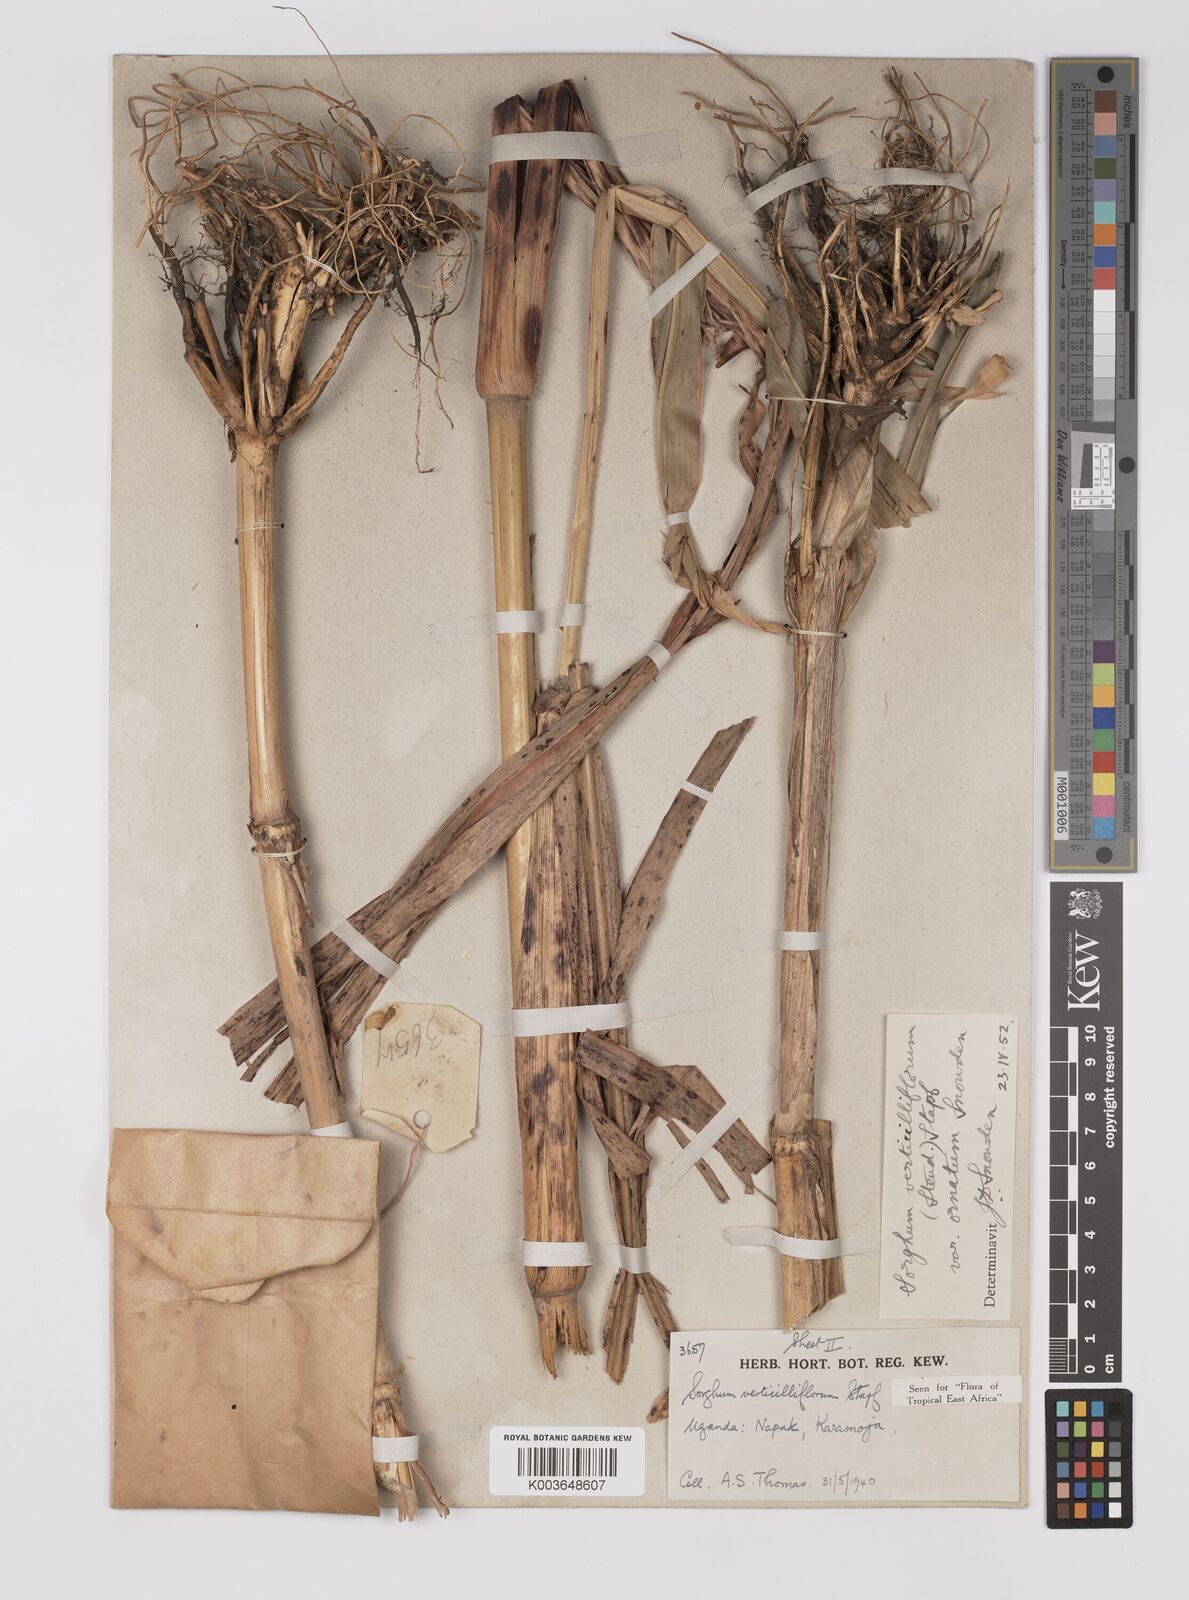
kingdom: Plantae
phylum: Tracheophyta
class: Liliopsida
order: Poales
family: Poaceae
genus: Sorghum
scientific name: Sorghum arundinaceum
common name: Sorghum
